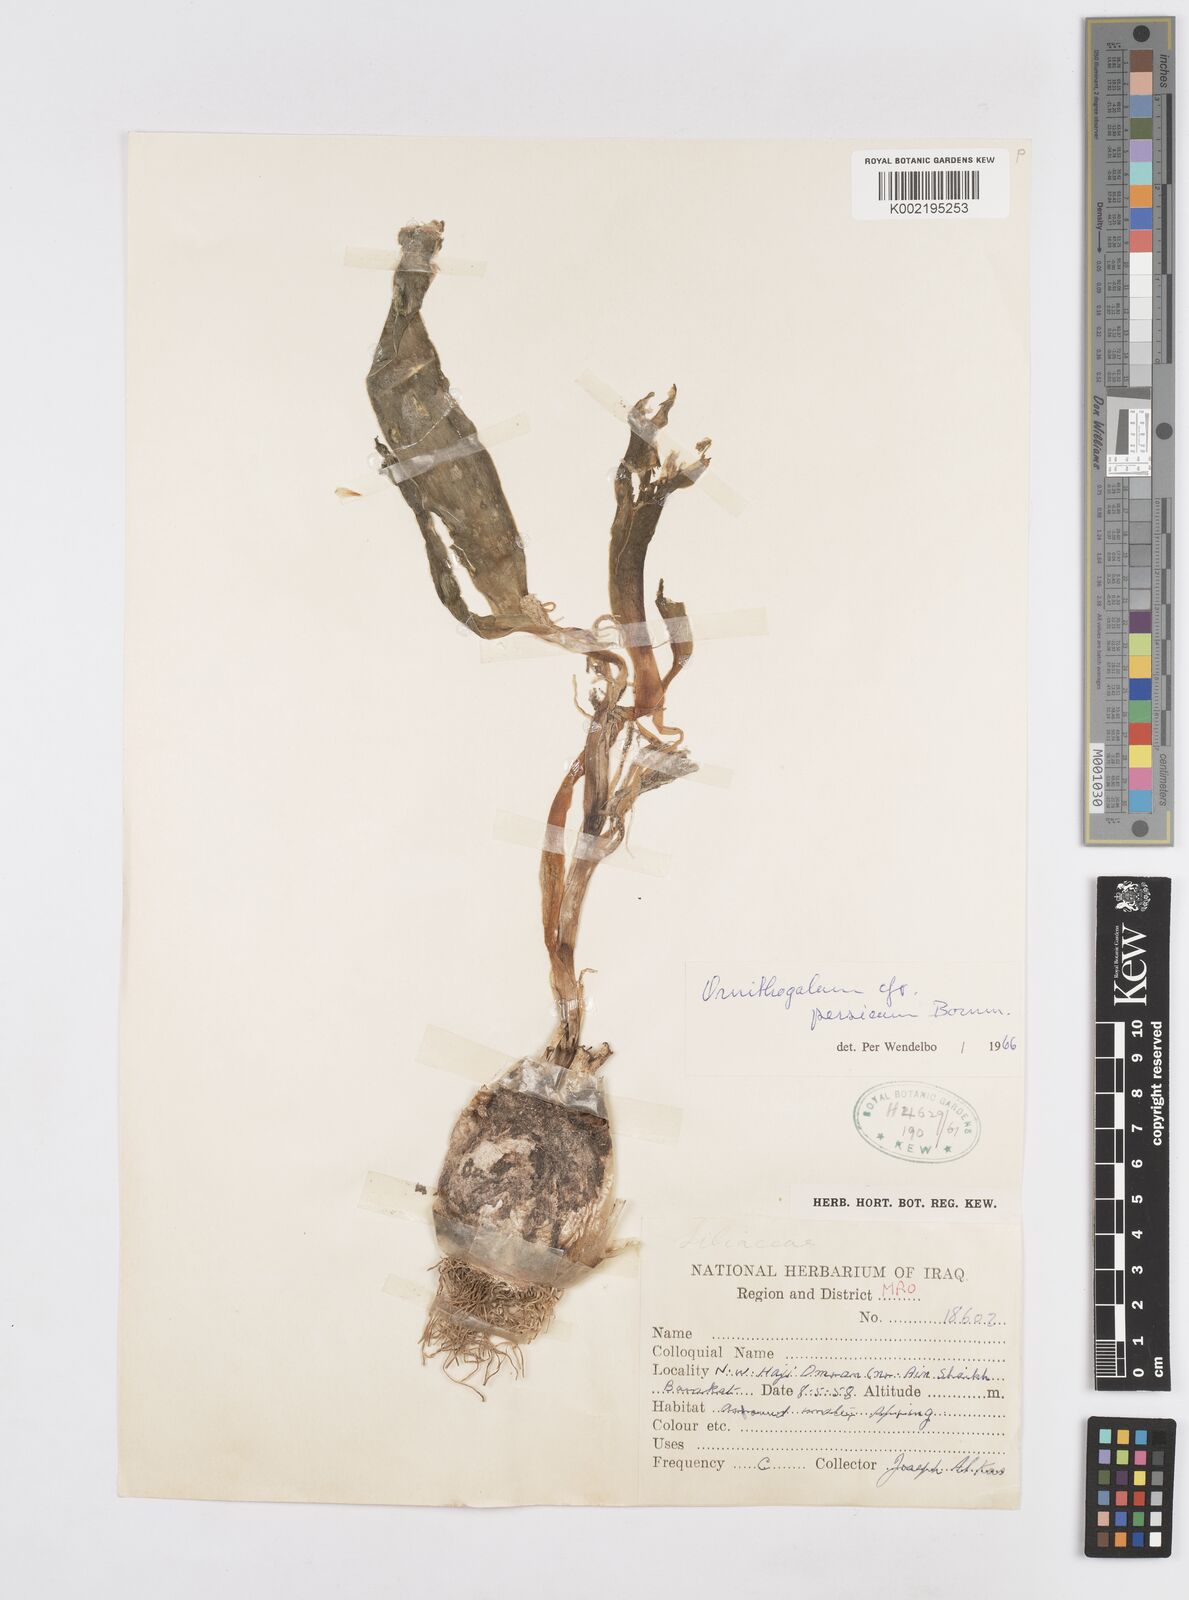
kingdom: Plantae
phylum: Tracheophyta
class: Liliopsida
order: Asparagales
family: Asparagaceae
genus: Ornithogalum
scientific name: Ornithogalum persicum
